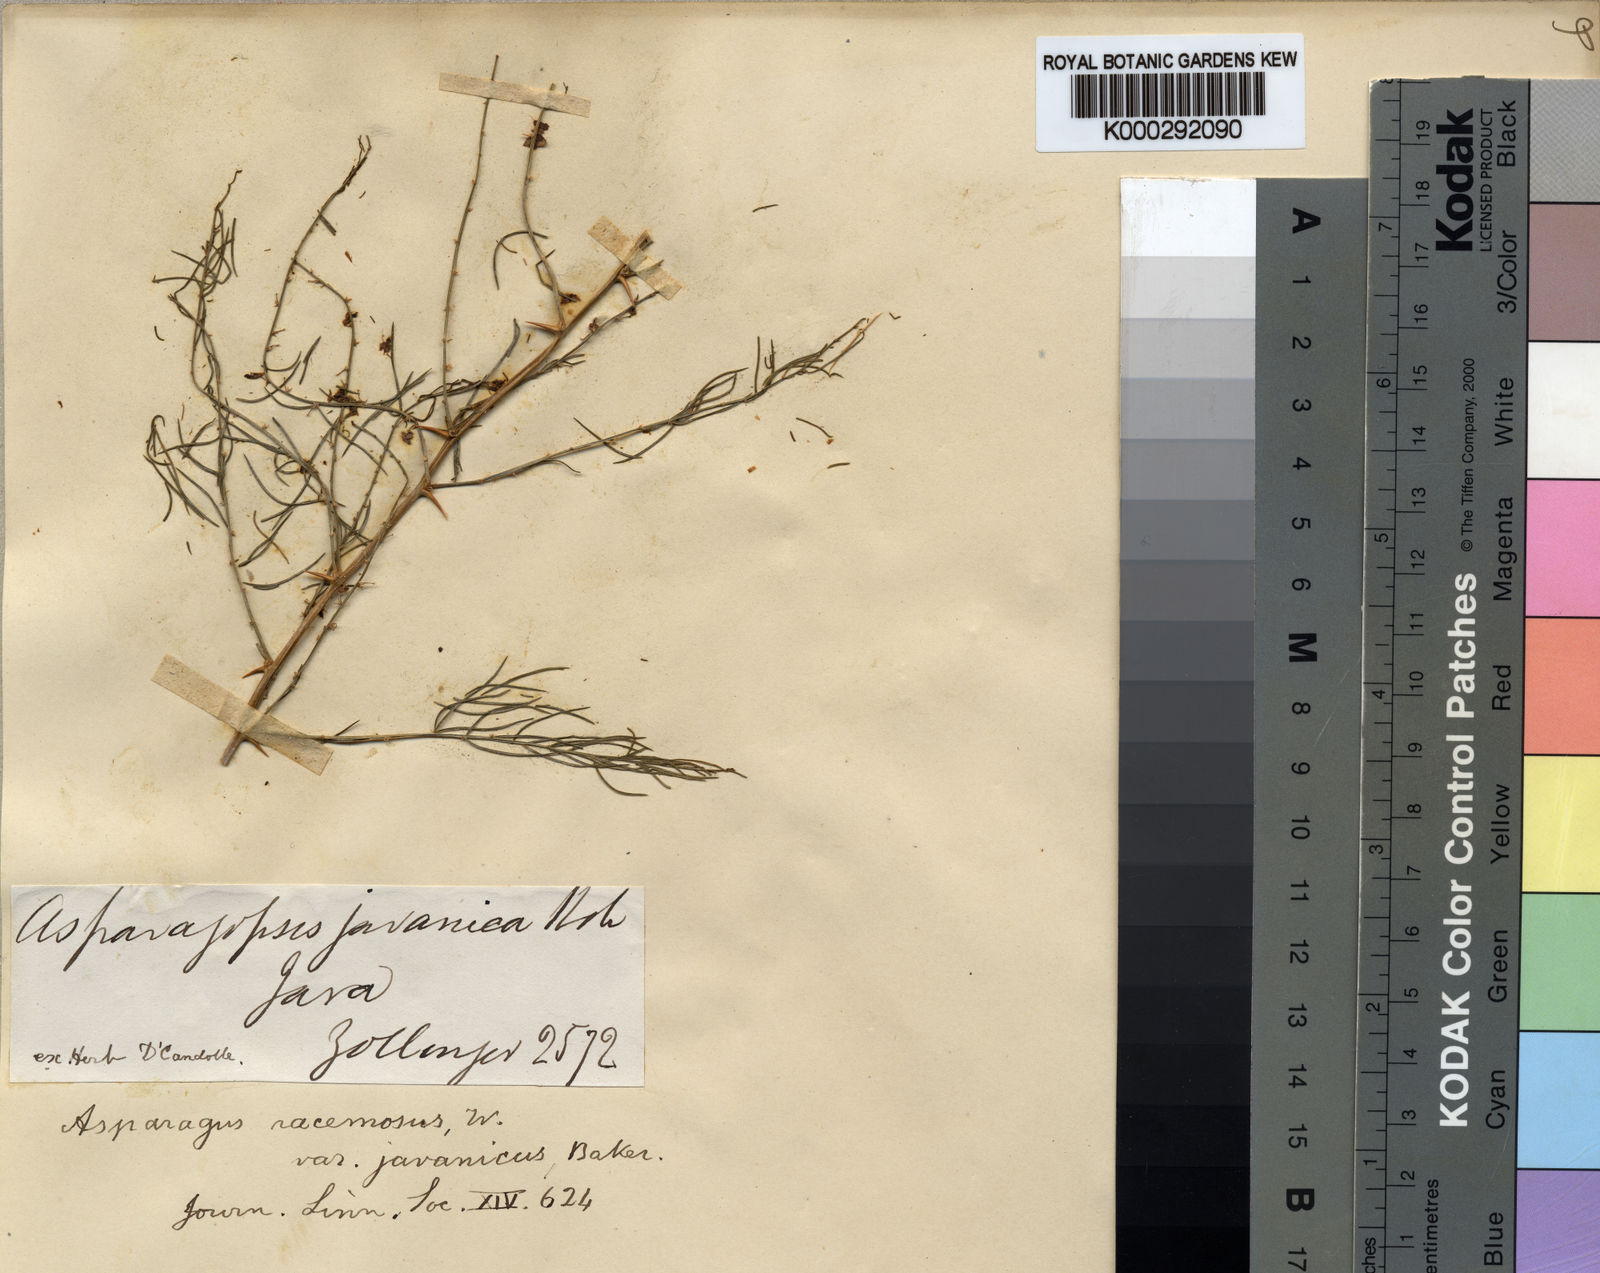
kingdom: Plantae
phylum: Tracheophyta
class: Liliopsida
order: Asparagales
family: Asparagaceae
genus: Asparagus
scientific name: Asparagus racemosus
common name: Asparagus-fern
